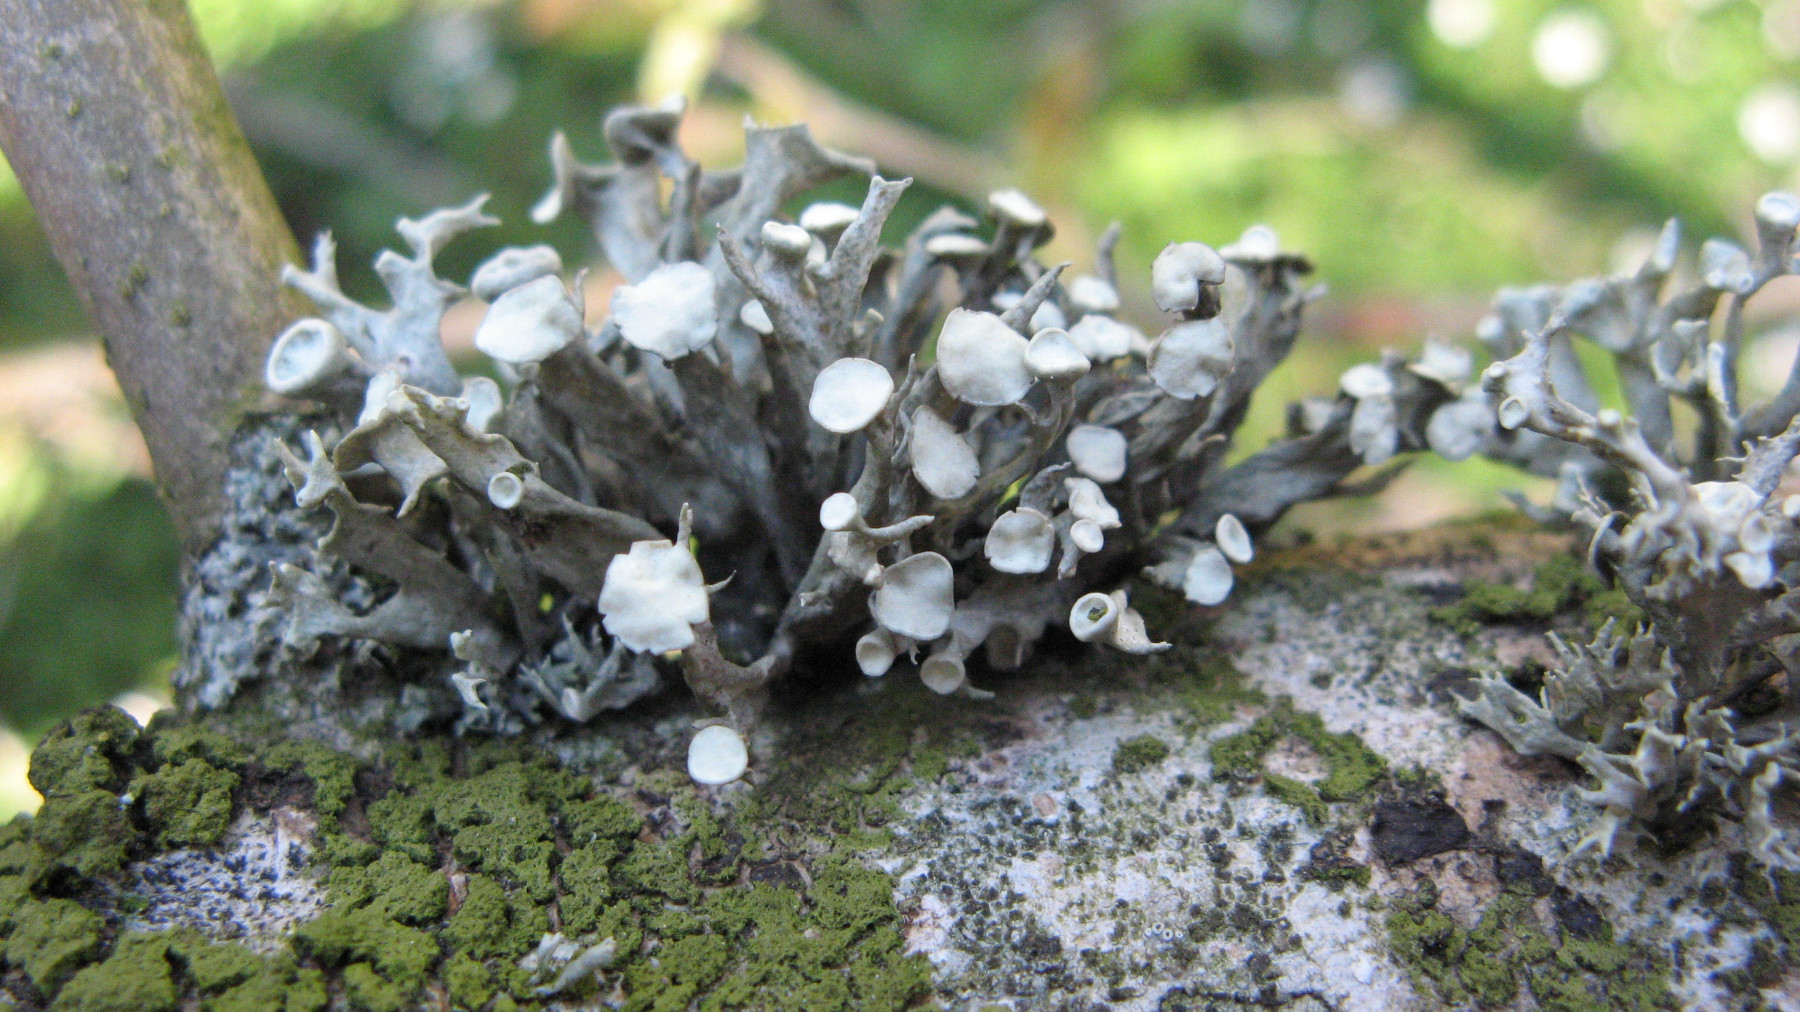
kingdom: Fungi
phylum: Ascomycota
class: Lecanoromycetes
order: Lecanorales
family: Ramalinaceae
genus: Ramalina
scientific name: Ramalina fastigiata
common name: tue-grenlav
